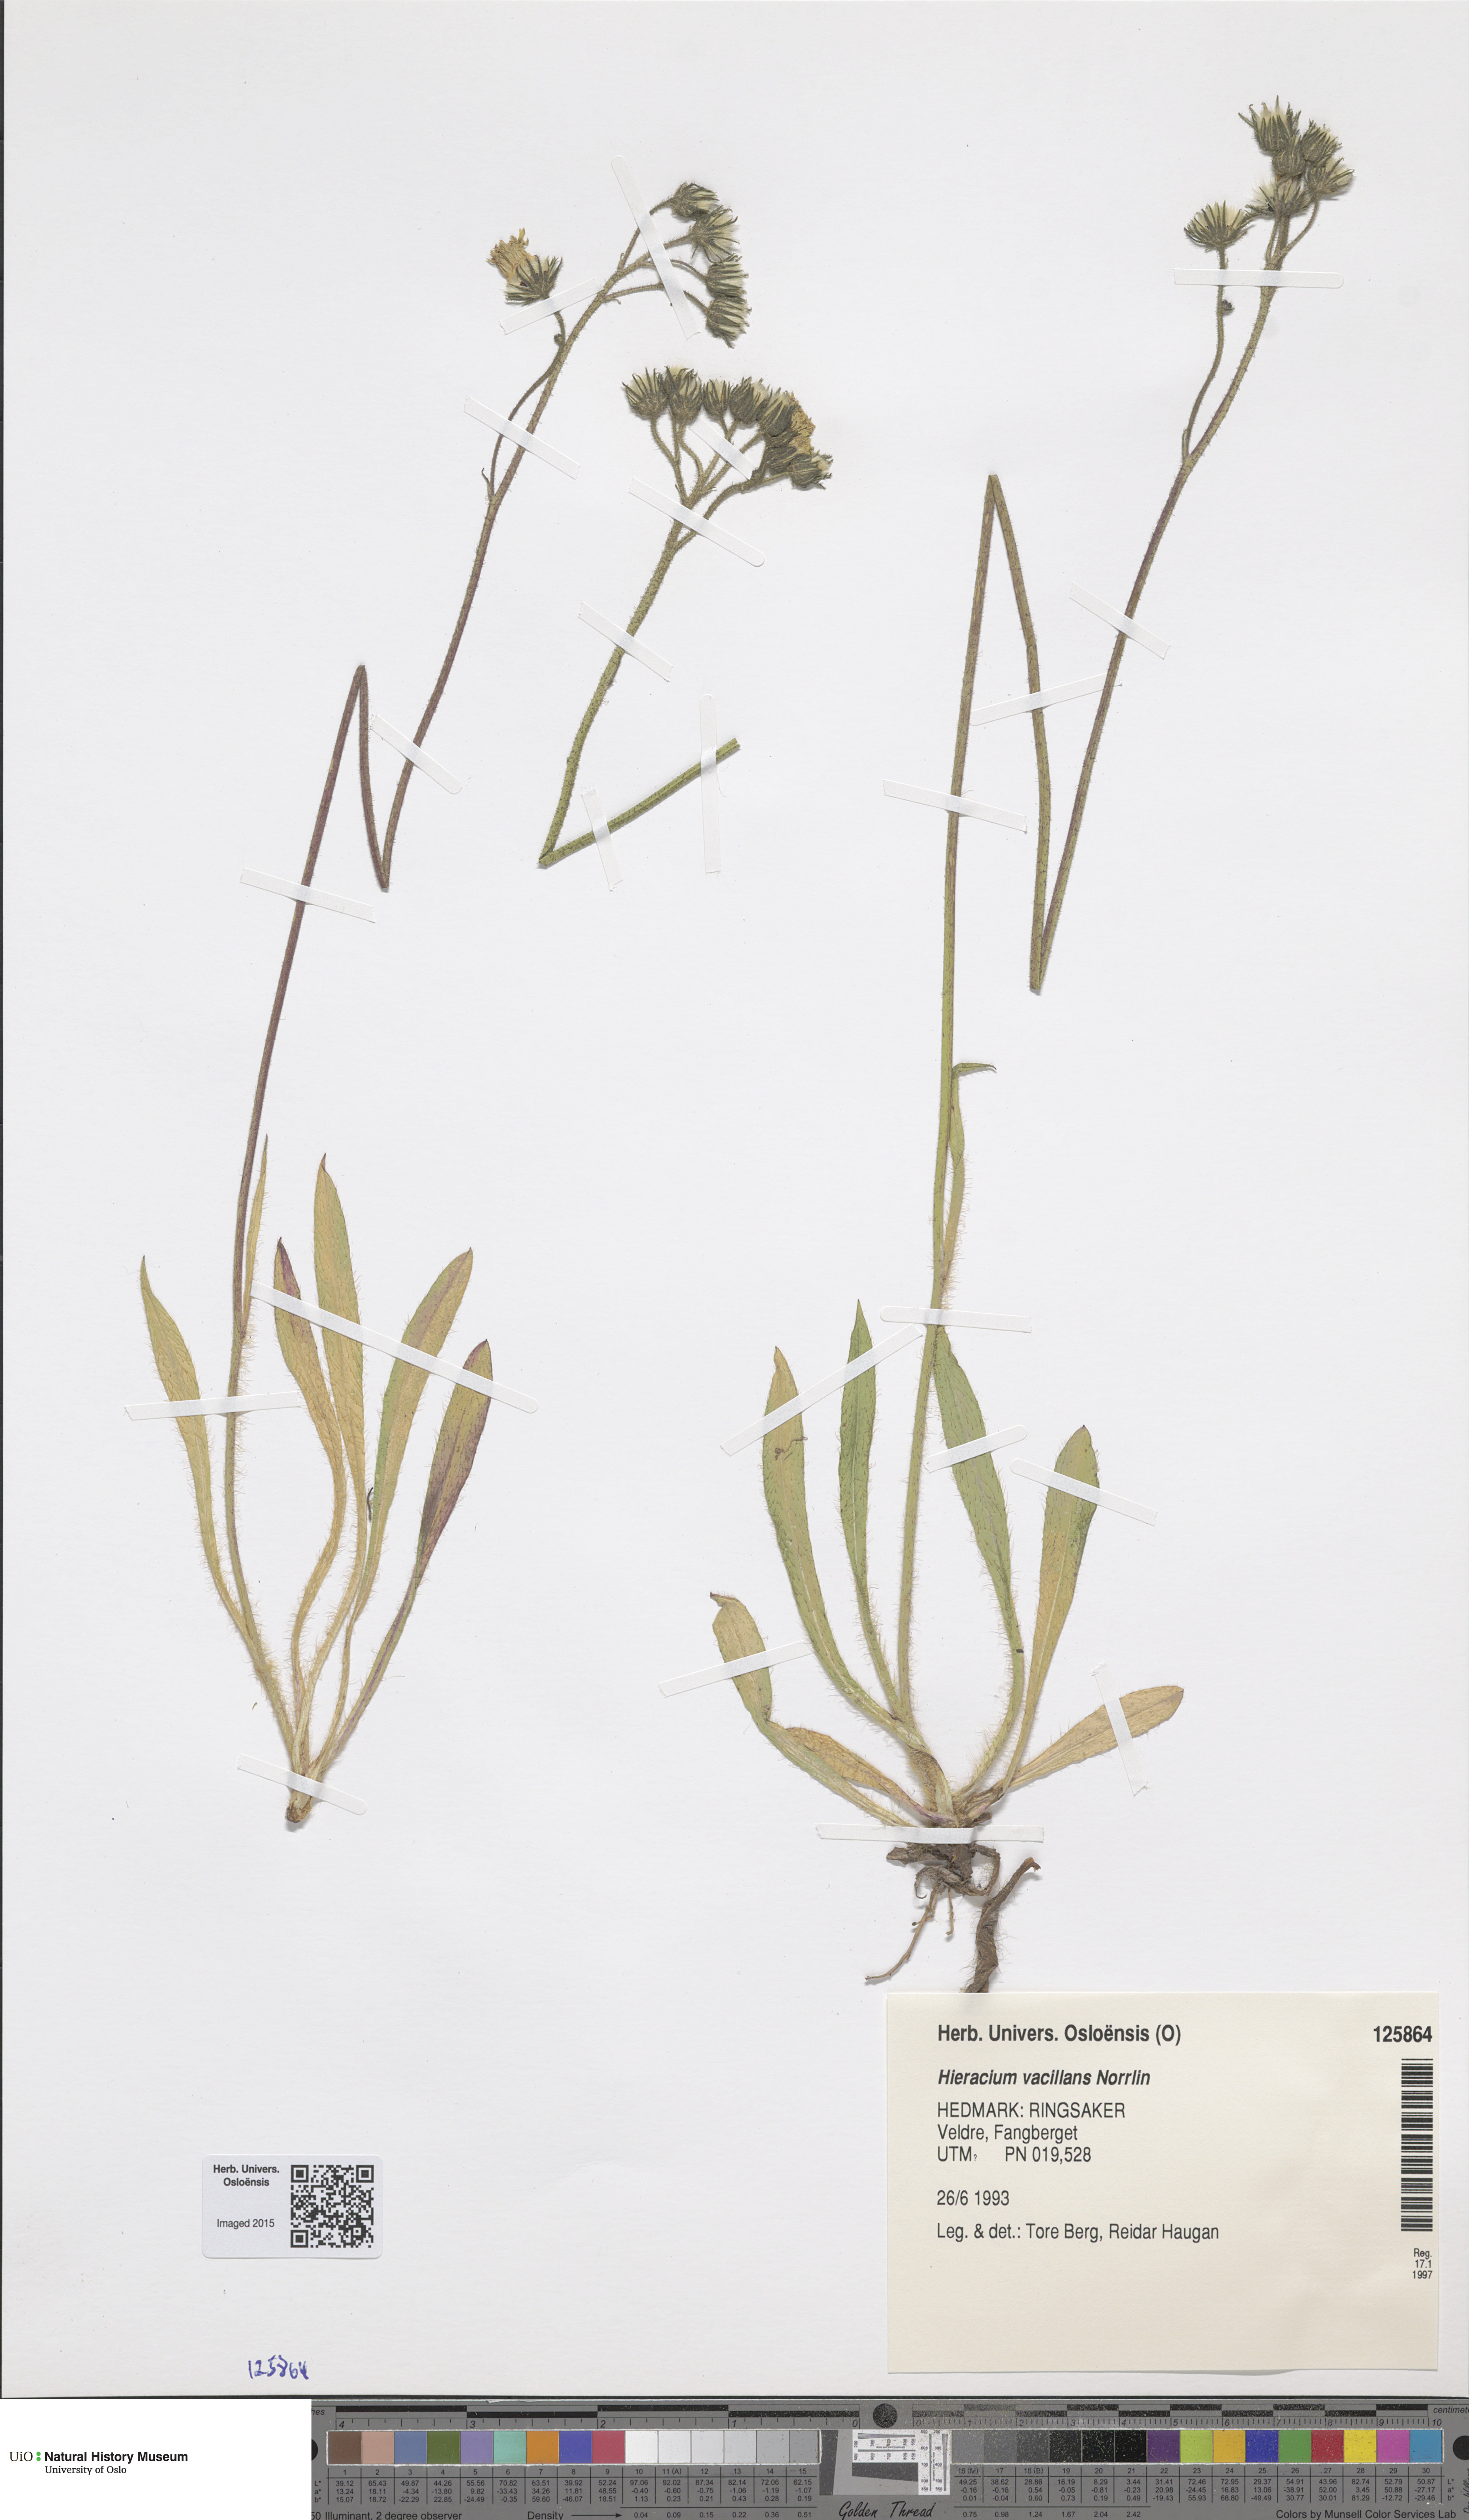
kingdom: Plantae
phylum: Tracheophyta
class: Magnoliopsida
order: Asterales
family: Asteraceae
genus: Pilosella
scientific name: Pilosella glomerata
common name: Queen devil hawkweed
